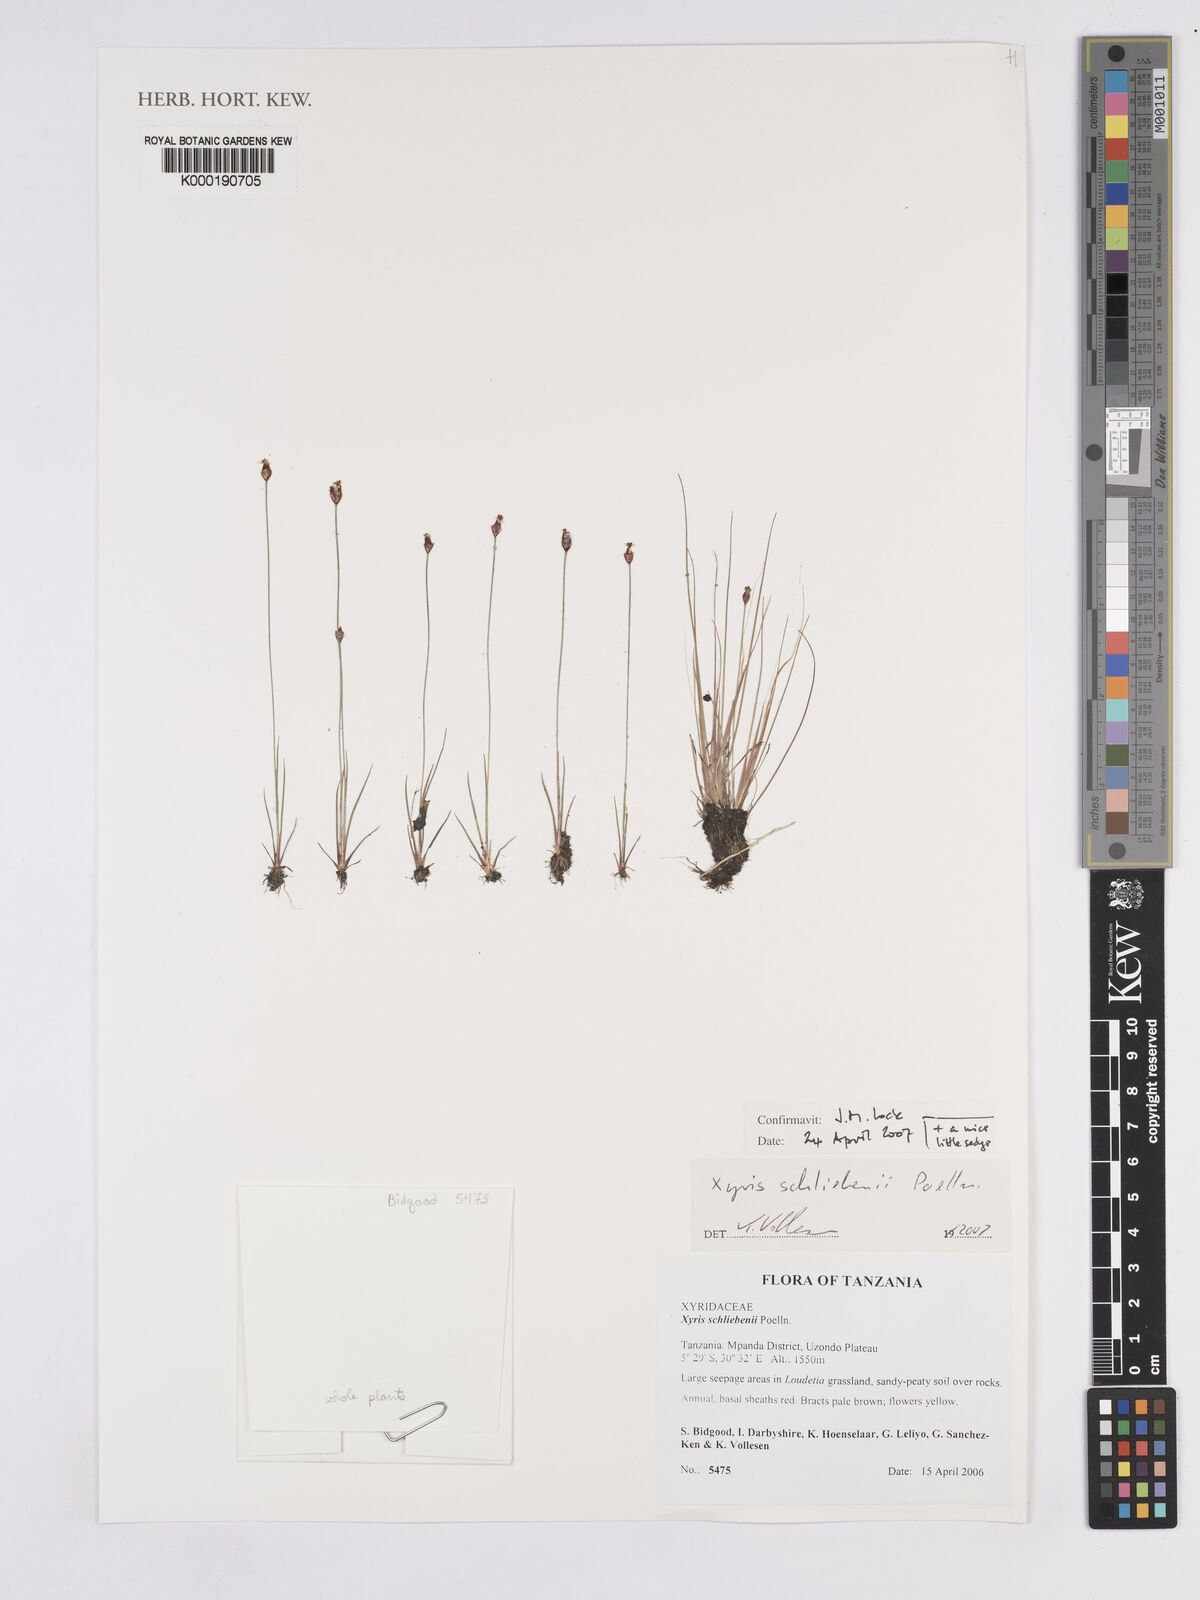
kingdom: Plantae
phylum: Tracheophyta
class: Liliopsida
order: Poales
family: Xyridaceae
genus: Xyris
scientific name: Xyris schliebenii
